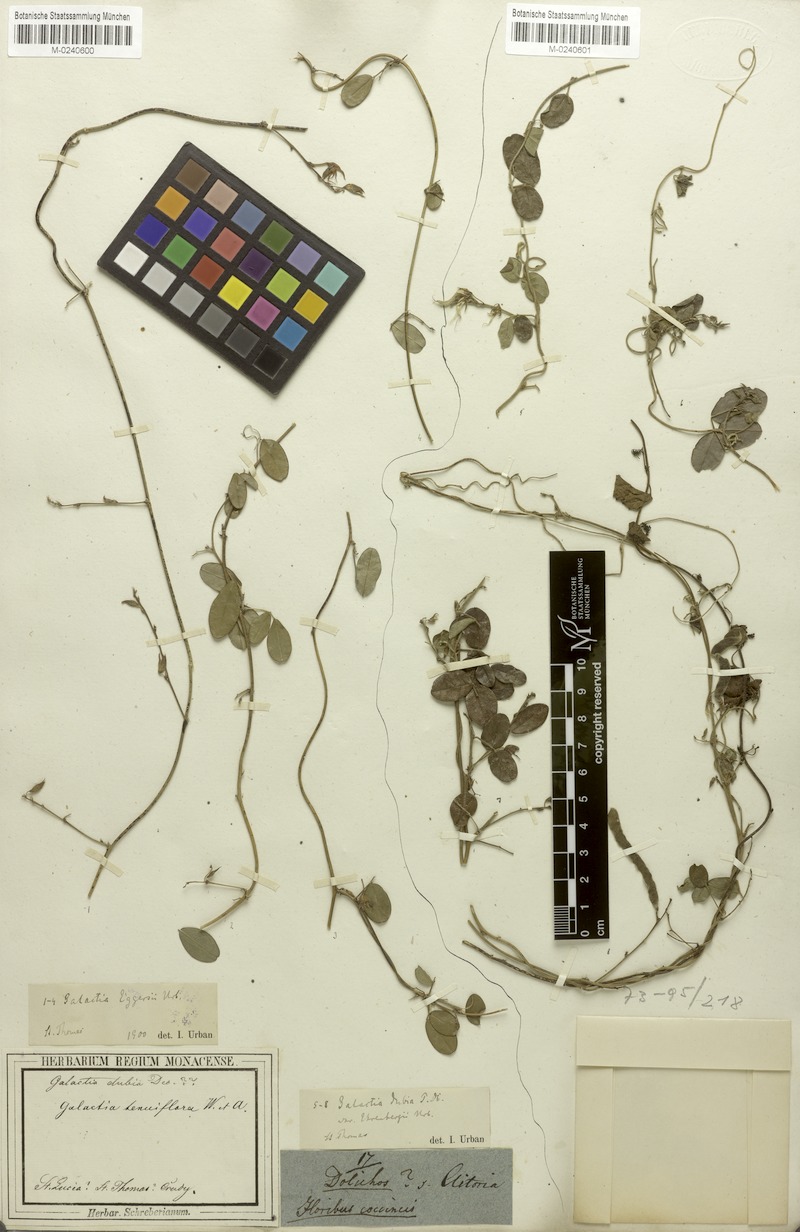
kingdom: Plantae
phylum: Tracheophyta
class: Magnoliopsida
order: Fabales
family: Fabaceae
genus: Galactia
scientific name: Galactia eggersii
